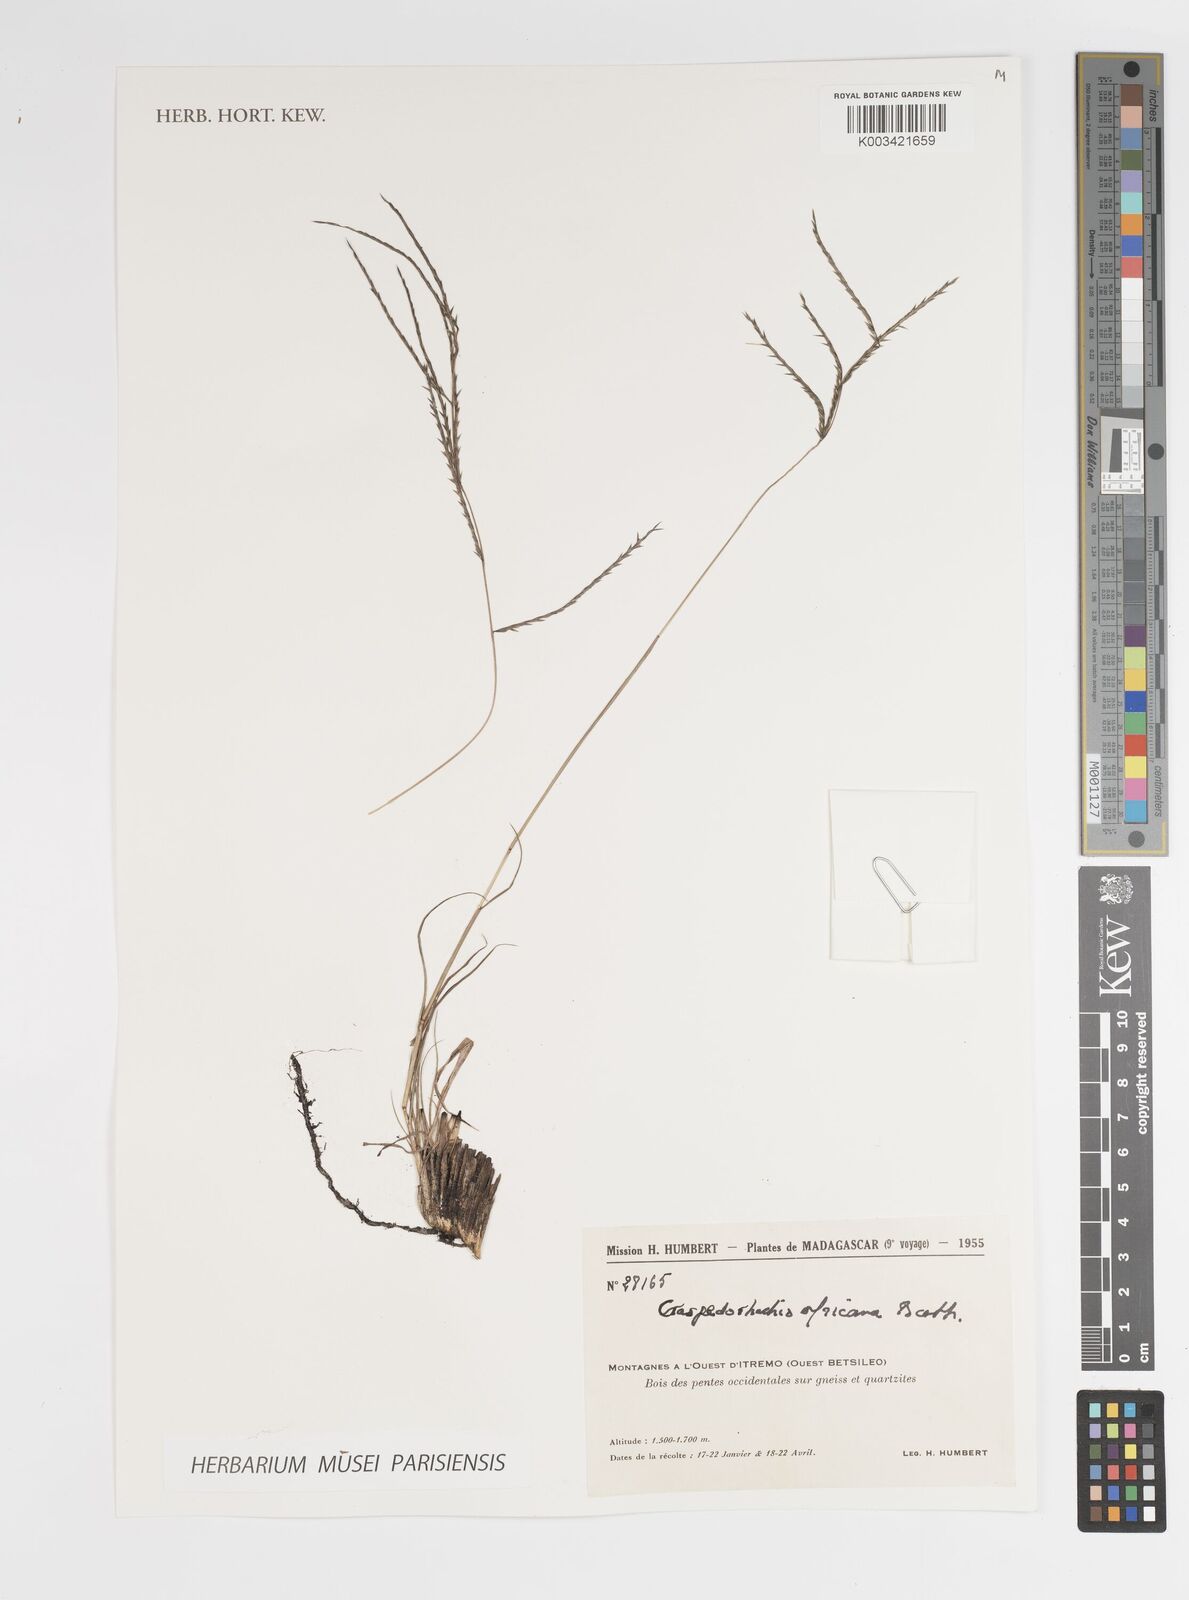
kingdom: Plantae
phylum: Tracheophyta
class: Liliopsida
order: Poales
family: Poaceae
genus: Craspedorhachis
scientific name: Craspedorhachis africana
